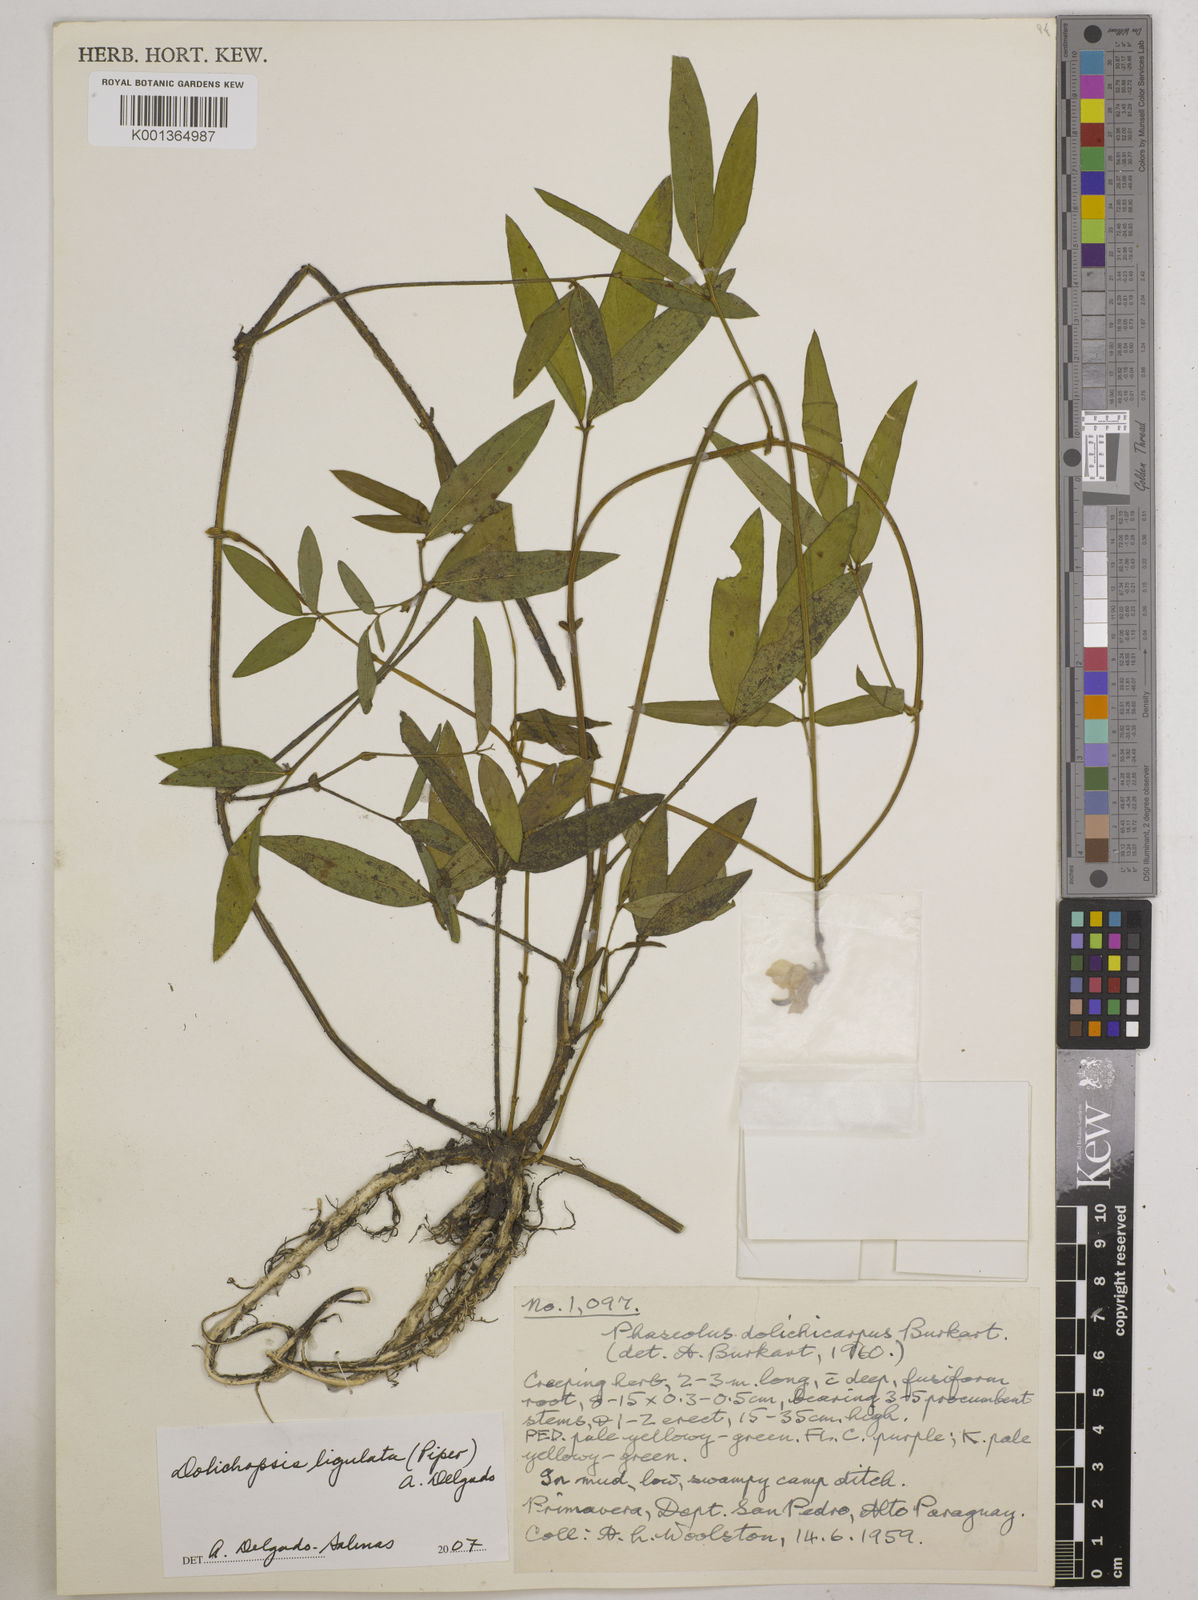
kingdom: Plantae
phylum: Tracheophyta
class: Magnoliopsida
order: Fabales
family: Fabaceae
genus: Dolichopsis
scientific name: Dolichopsis ligulata
